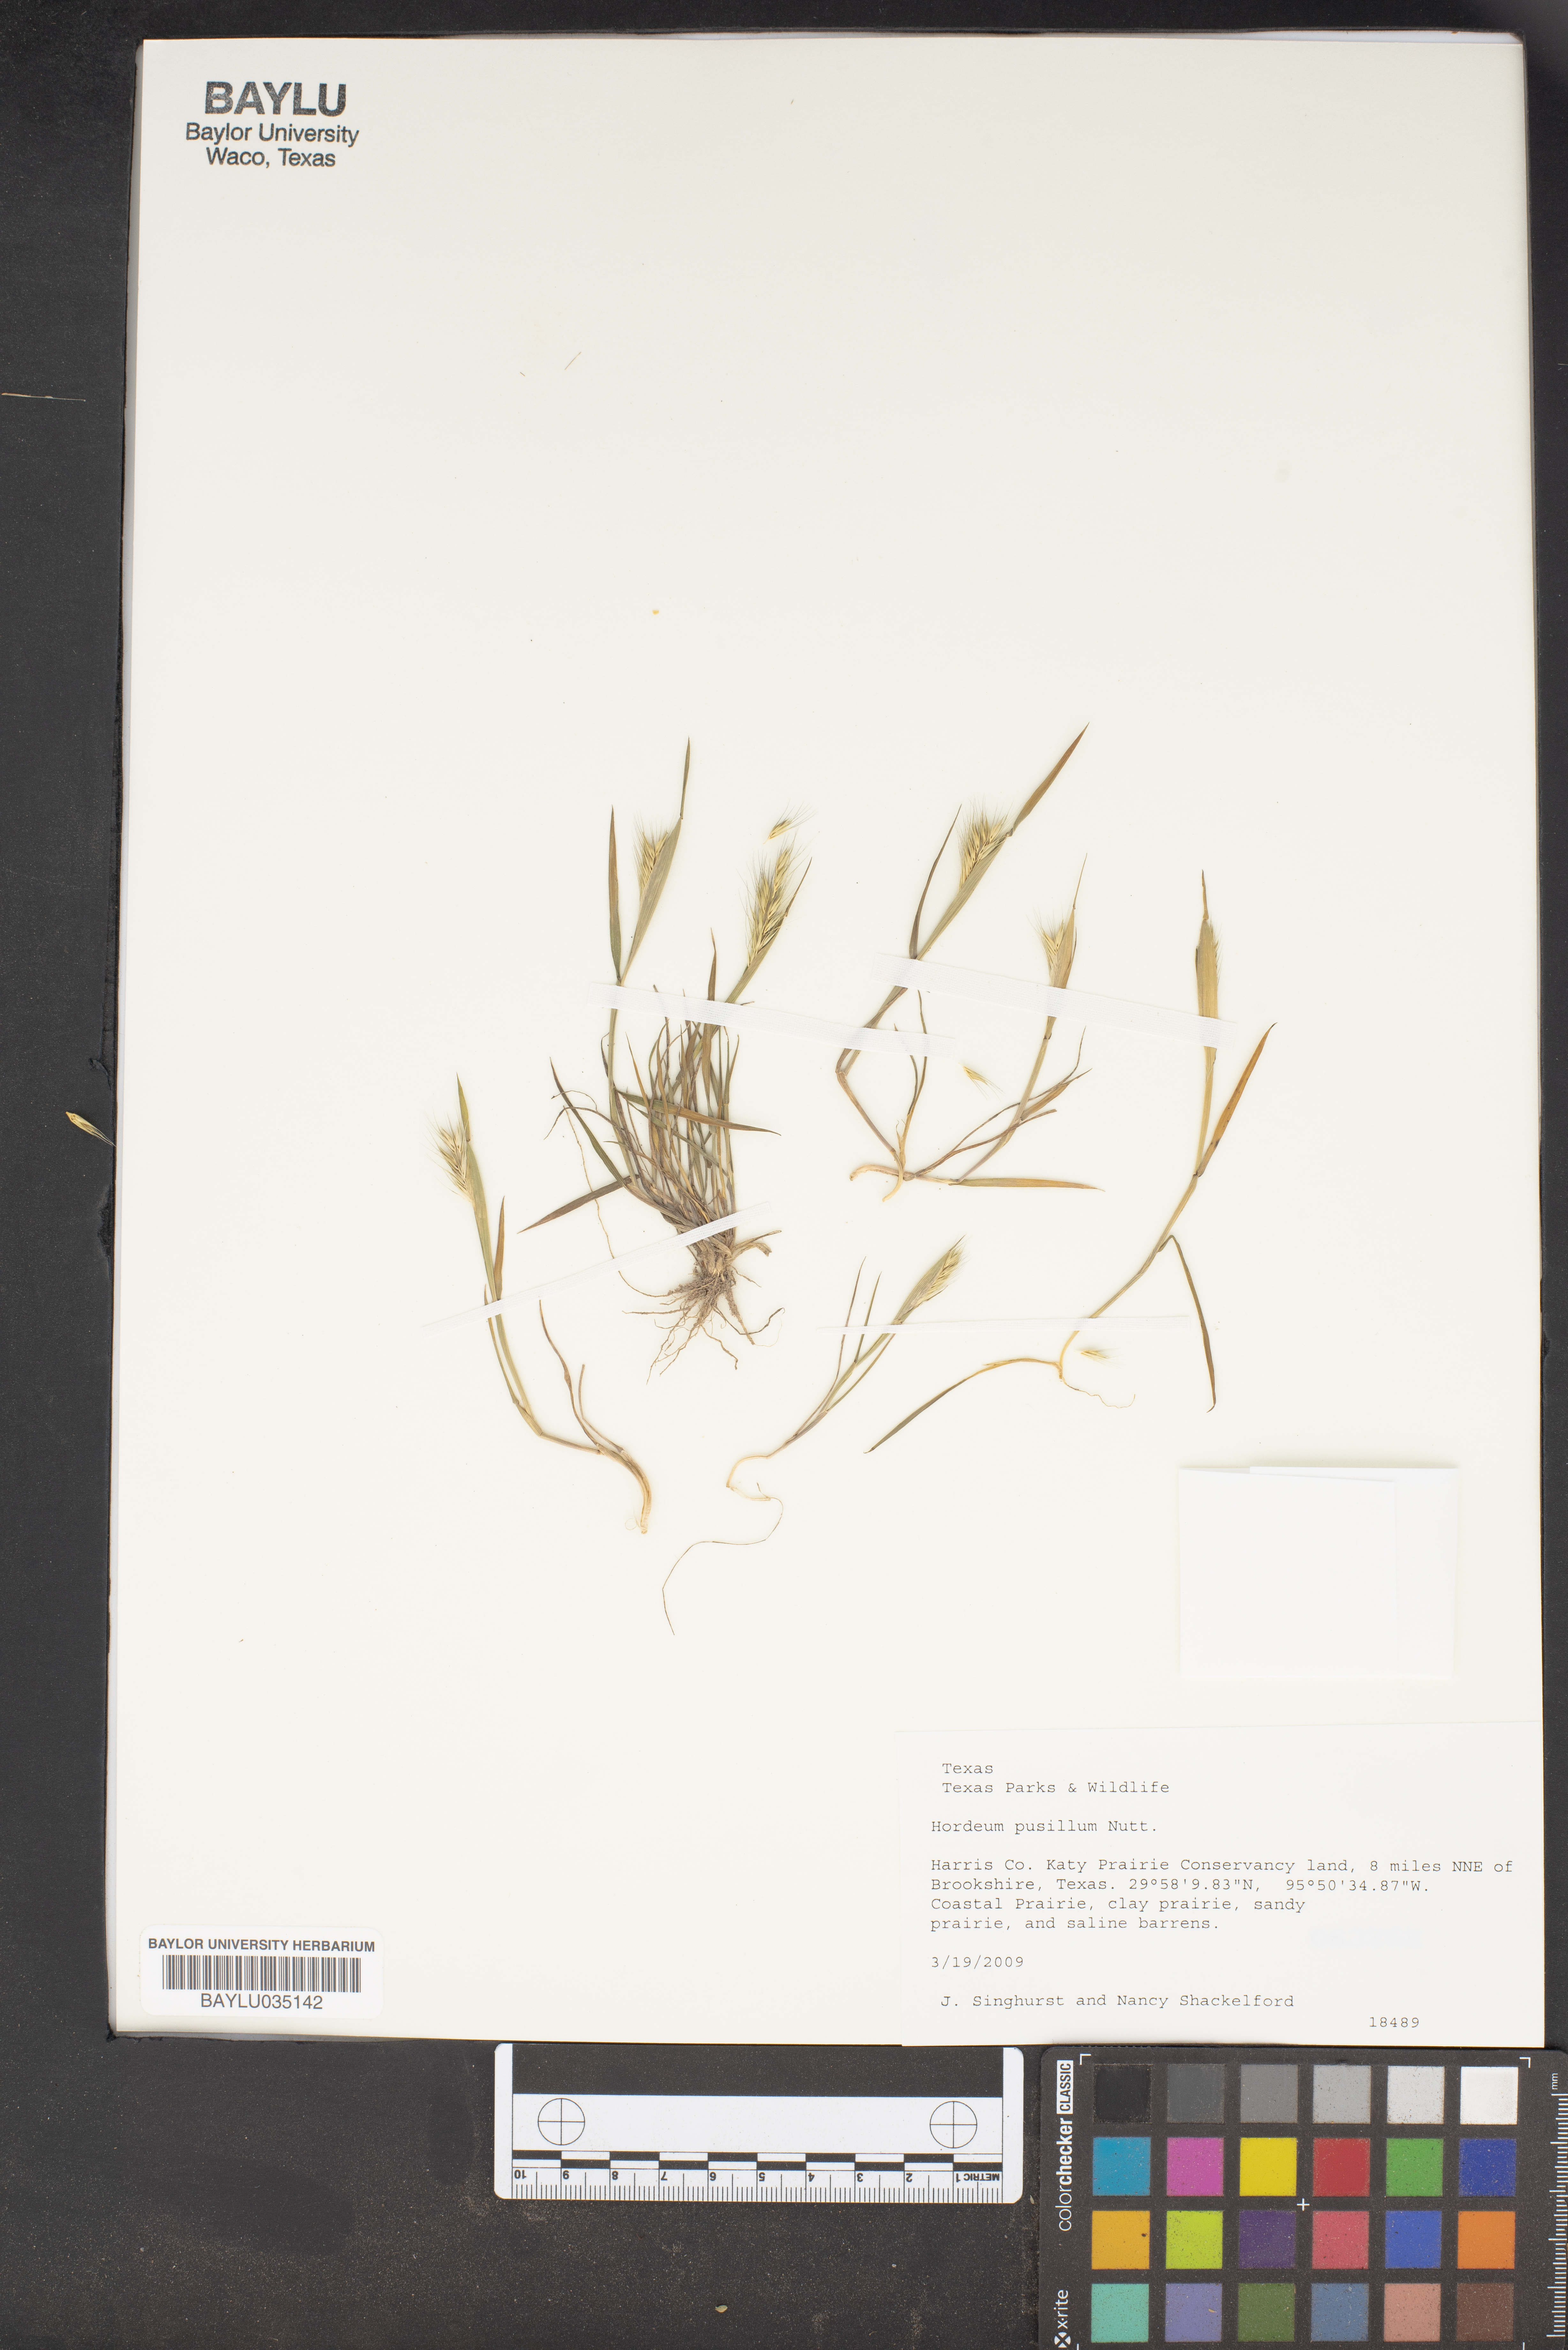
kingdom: Plantae
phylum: Tracheophyta
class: Liliopsida
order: Poales
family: Poaceae
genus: Hordeum
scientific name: Hordeum pusillum
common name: Little barley
